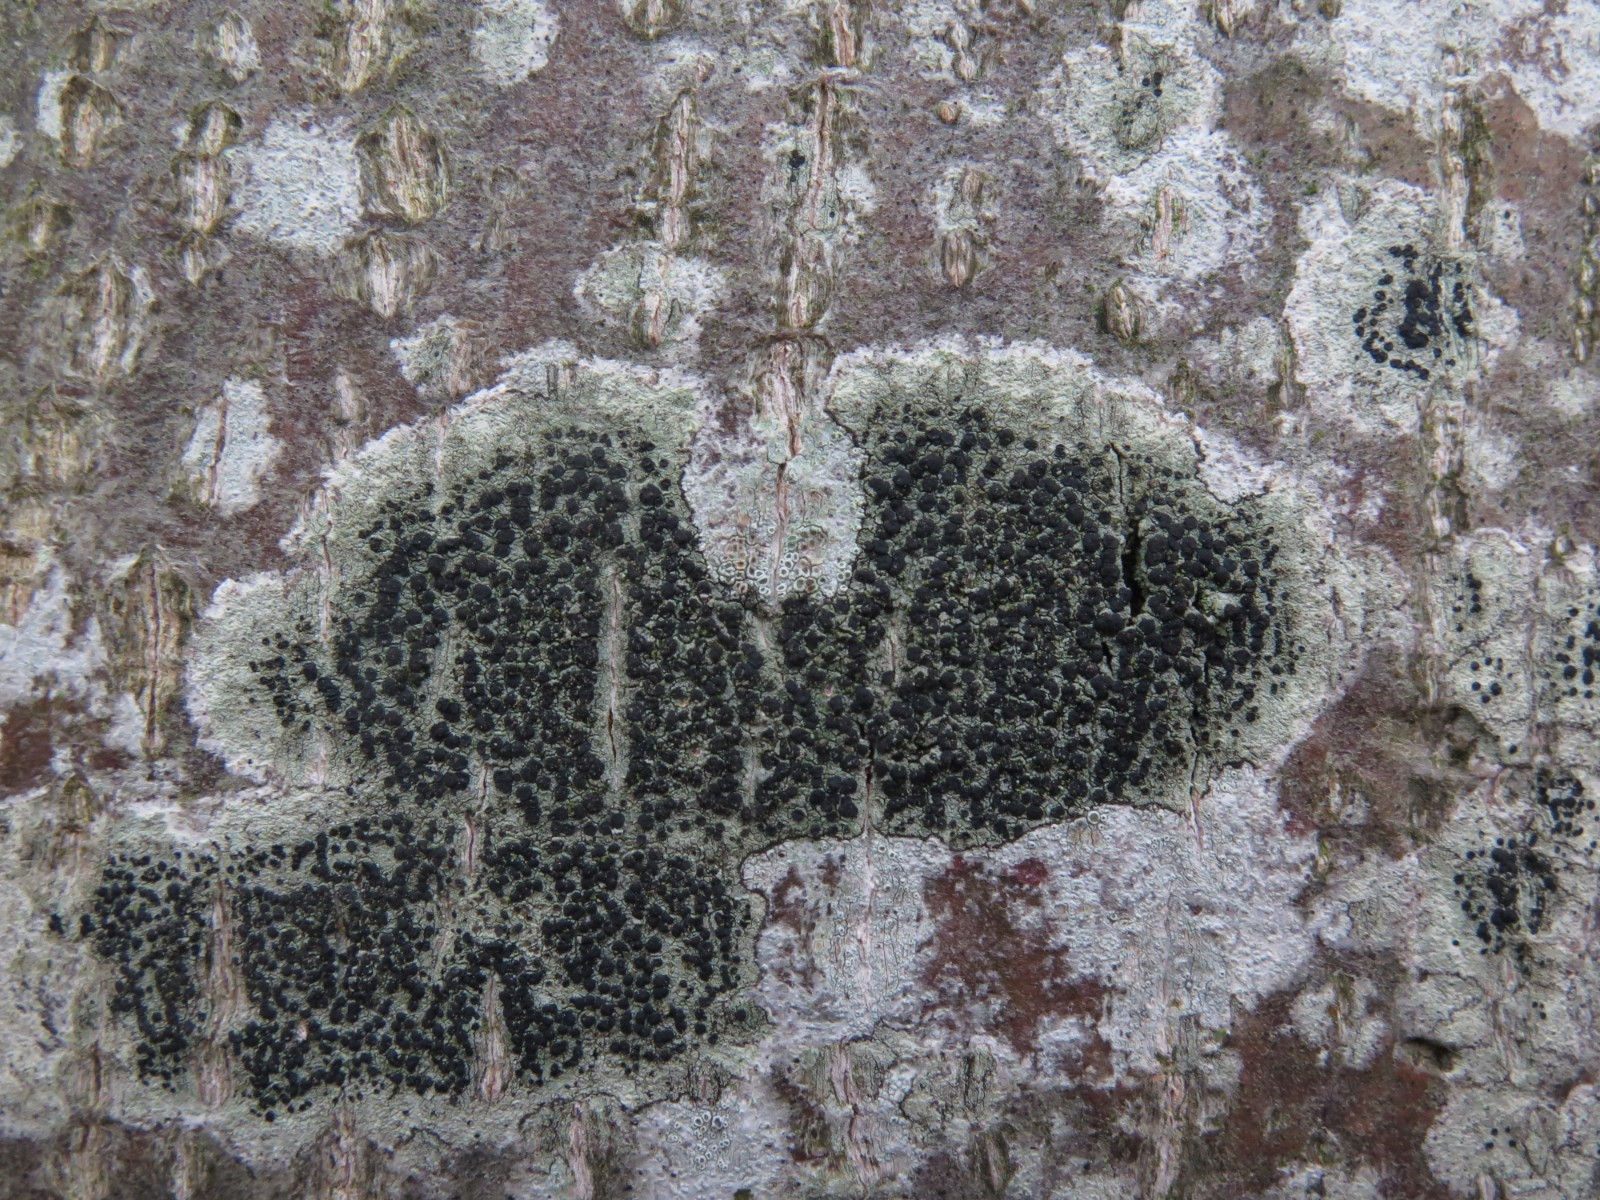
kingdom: Fungi
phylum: Ascomycota
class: Lecanoromycetes
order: Lecanorales
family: Lecanoraceae
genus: Lecidella
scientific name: Lecidella elaeochroma
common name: grågrøn skivelav
